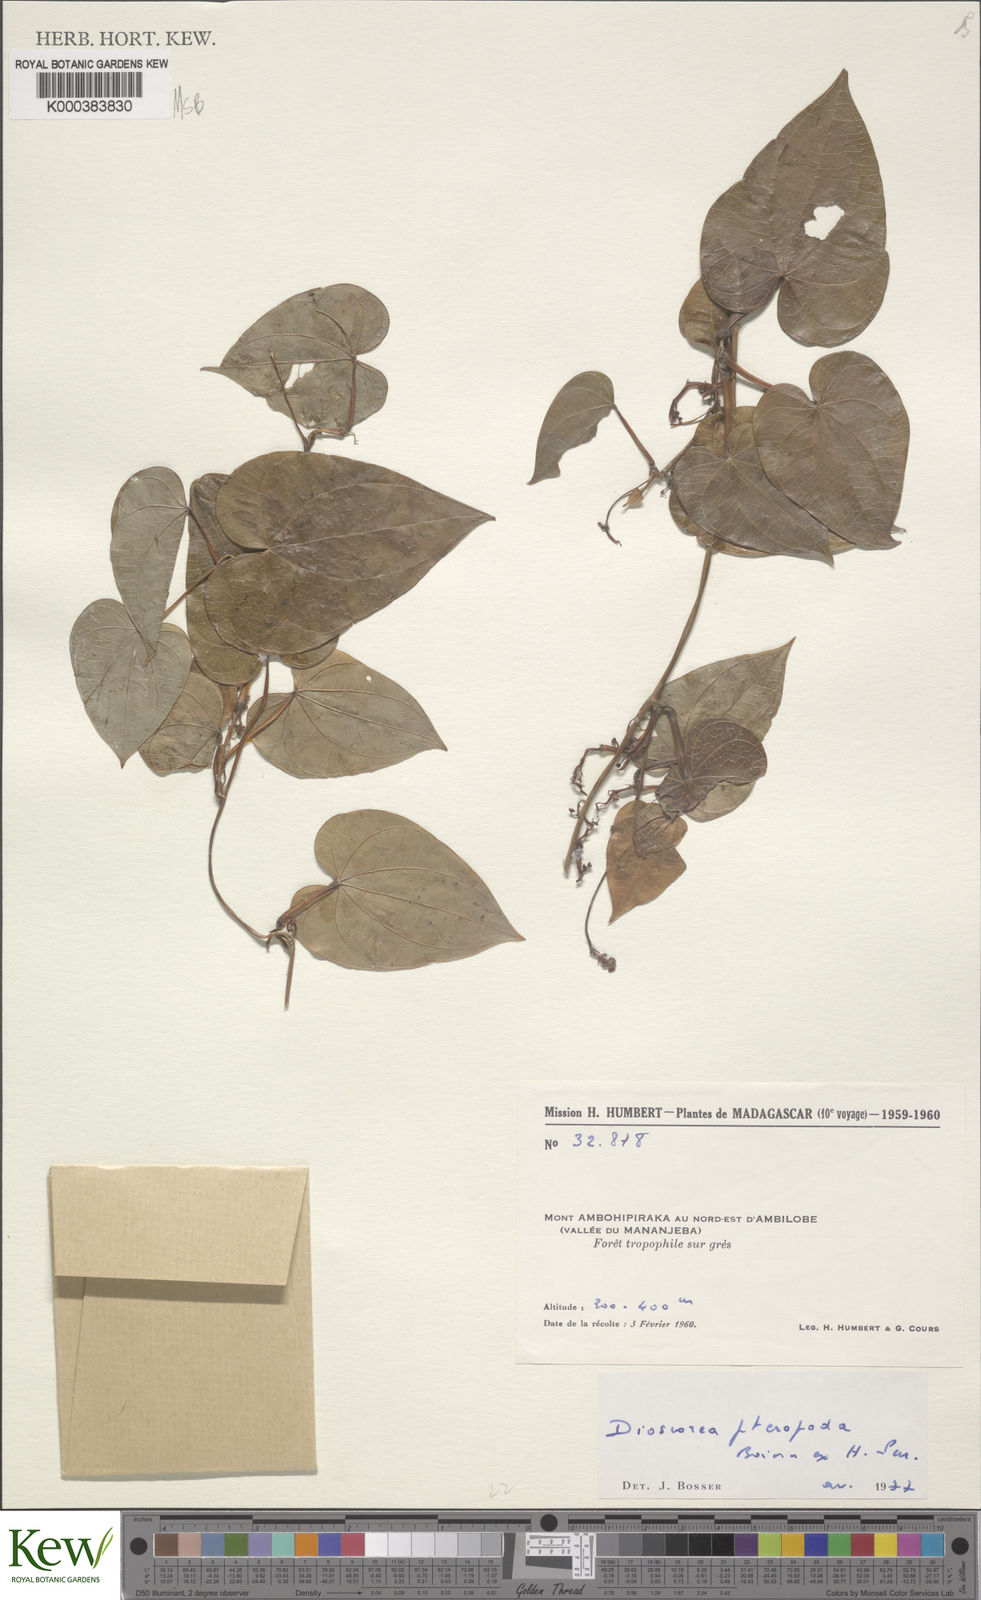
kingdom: Plantae
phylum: Tracheophyta
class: Liliopsida
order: Dioscoreales
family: Dioscoreaceae
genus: Dioscorea
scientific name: Dioscorea
